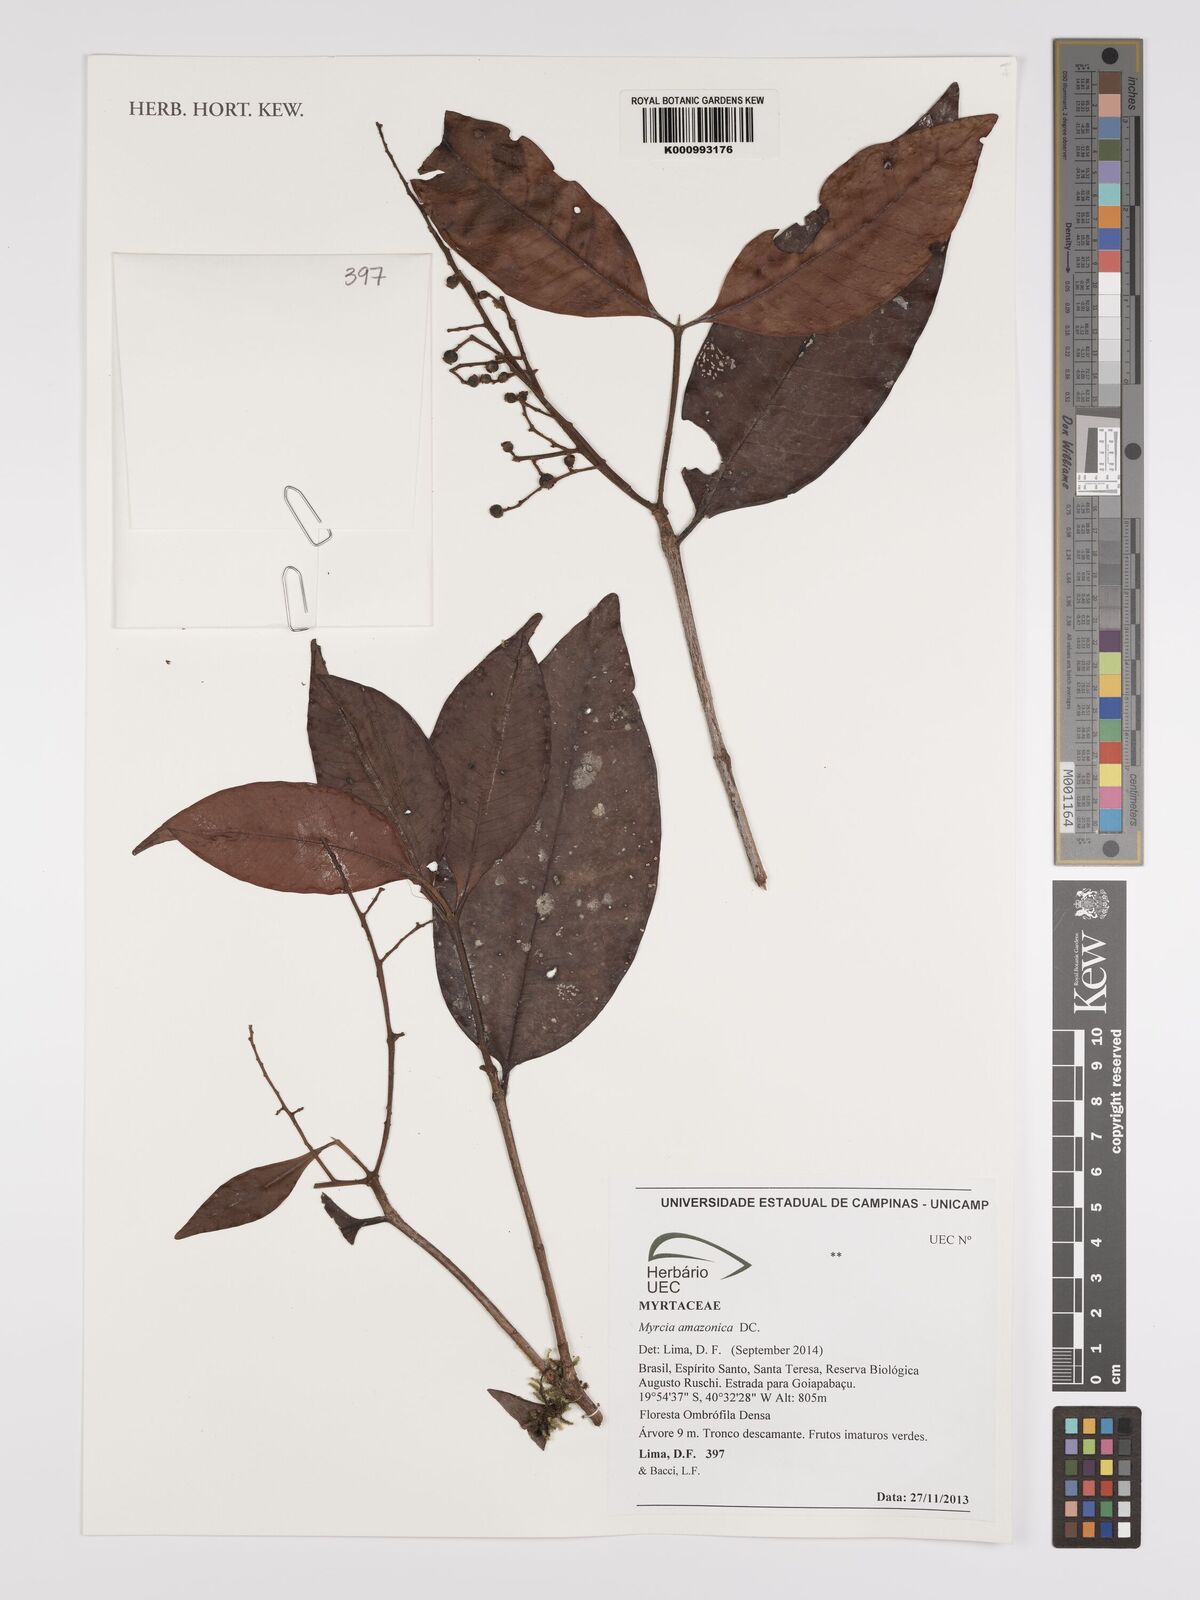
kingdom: Plantae
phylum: Tracheophyta
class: Magnoliopsida
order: Myrtales
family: Myrtaceae
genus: Myrcia
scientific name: Myrcia amazonica
